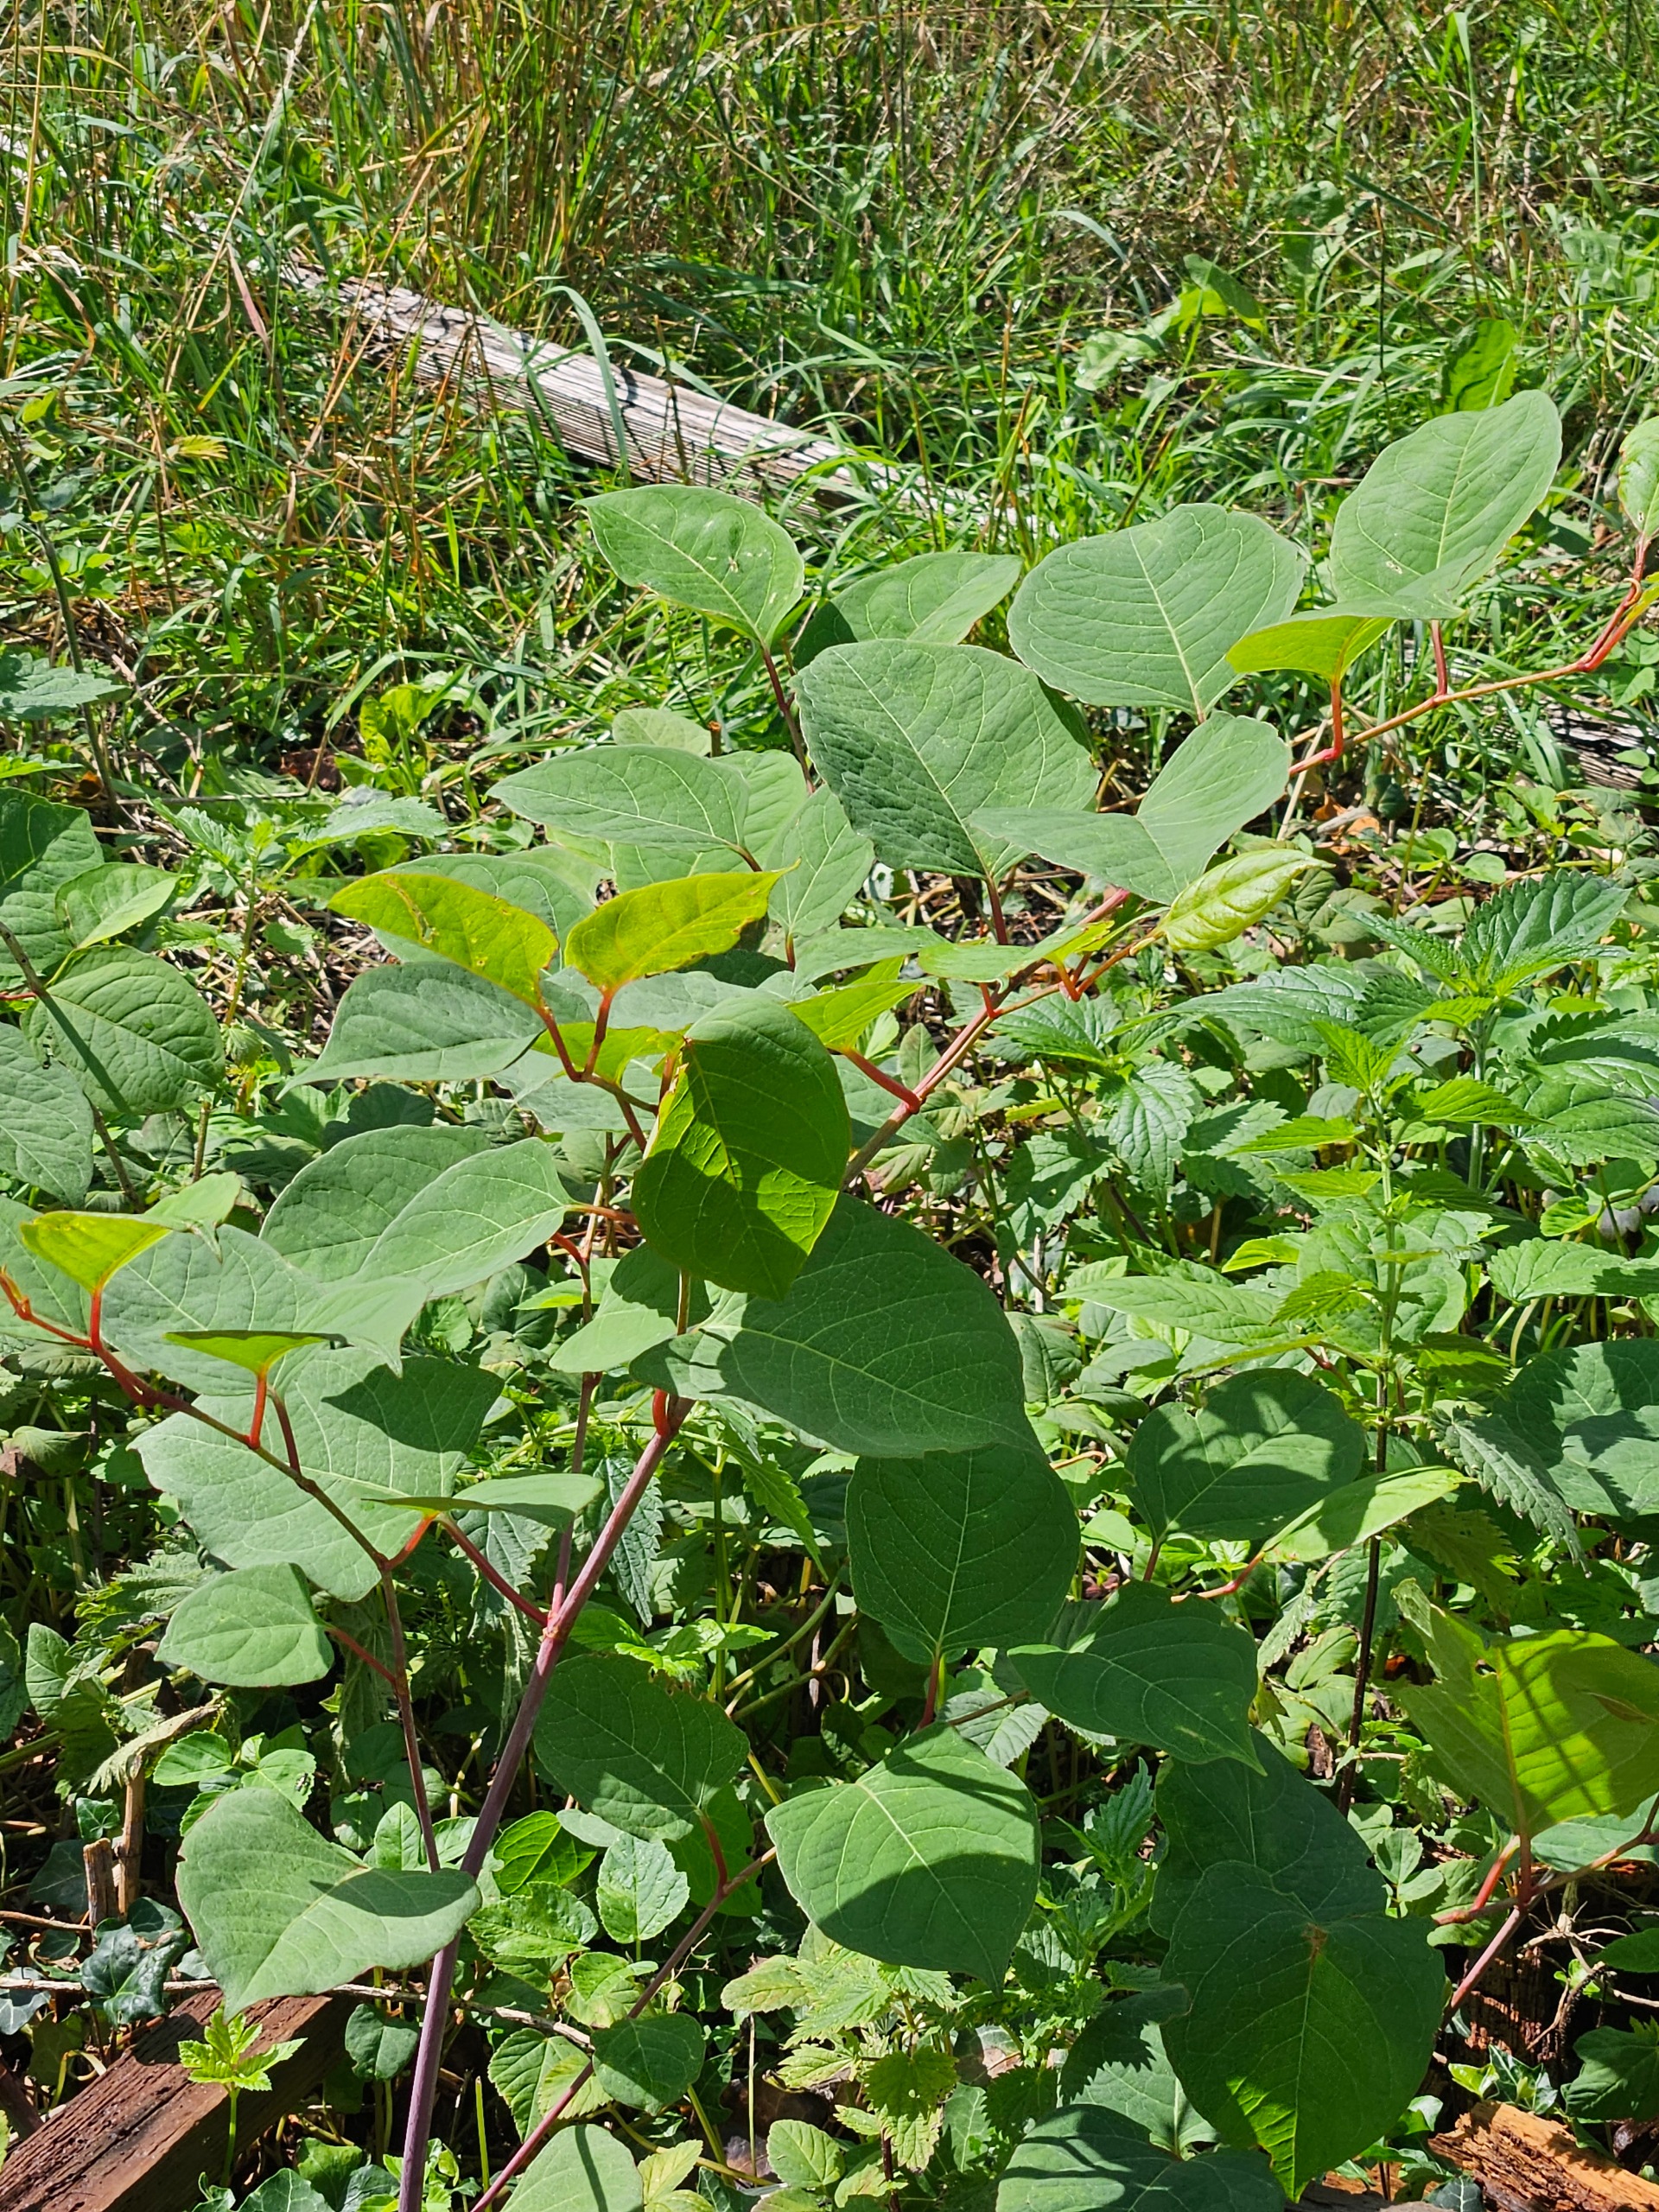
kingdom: Plantae
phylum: Tracheophyta
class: Magnoliopsida
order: Caryophyllales
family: Polygonaceae
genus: Reynoutria
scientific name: Reynoutria japonica
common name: Japan-pileurt
